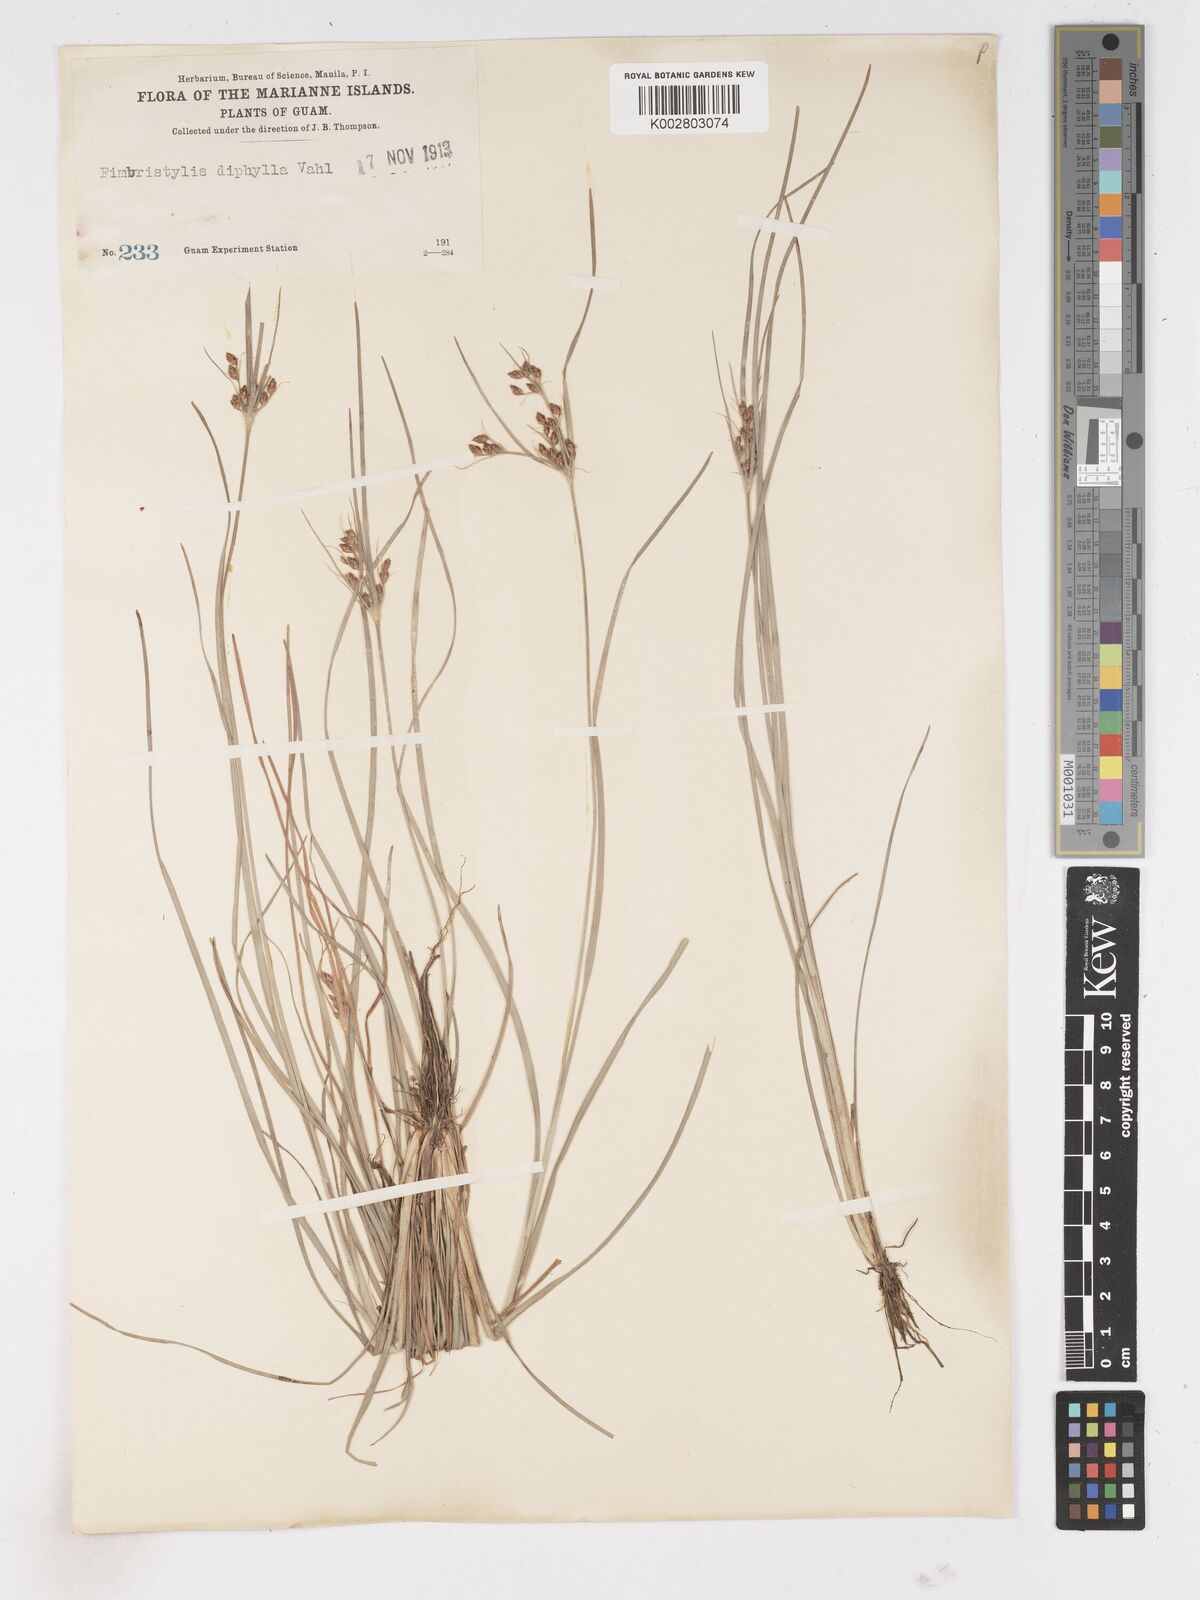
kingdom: Plantae
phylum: Tracheophyta
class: Liliopsida
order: Poales
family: Cyperaceae
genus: Fimbristylis
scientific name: Fimbristylis dichotoma
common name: Forked fimbry
